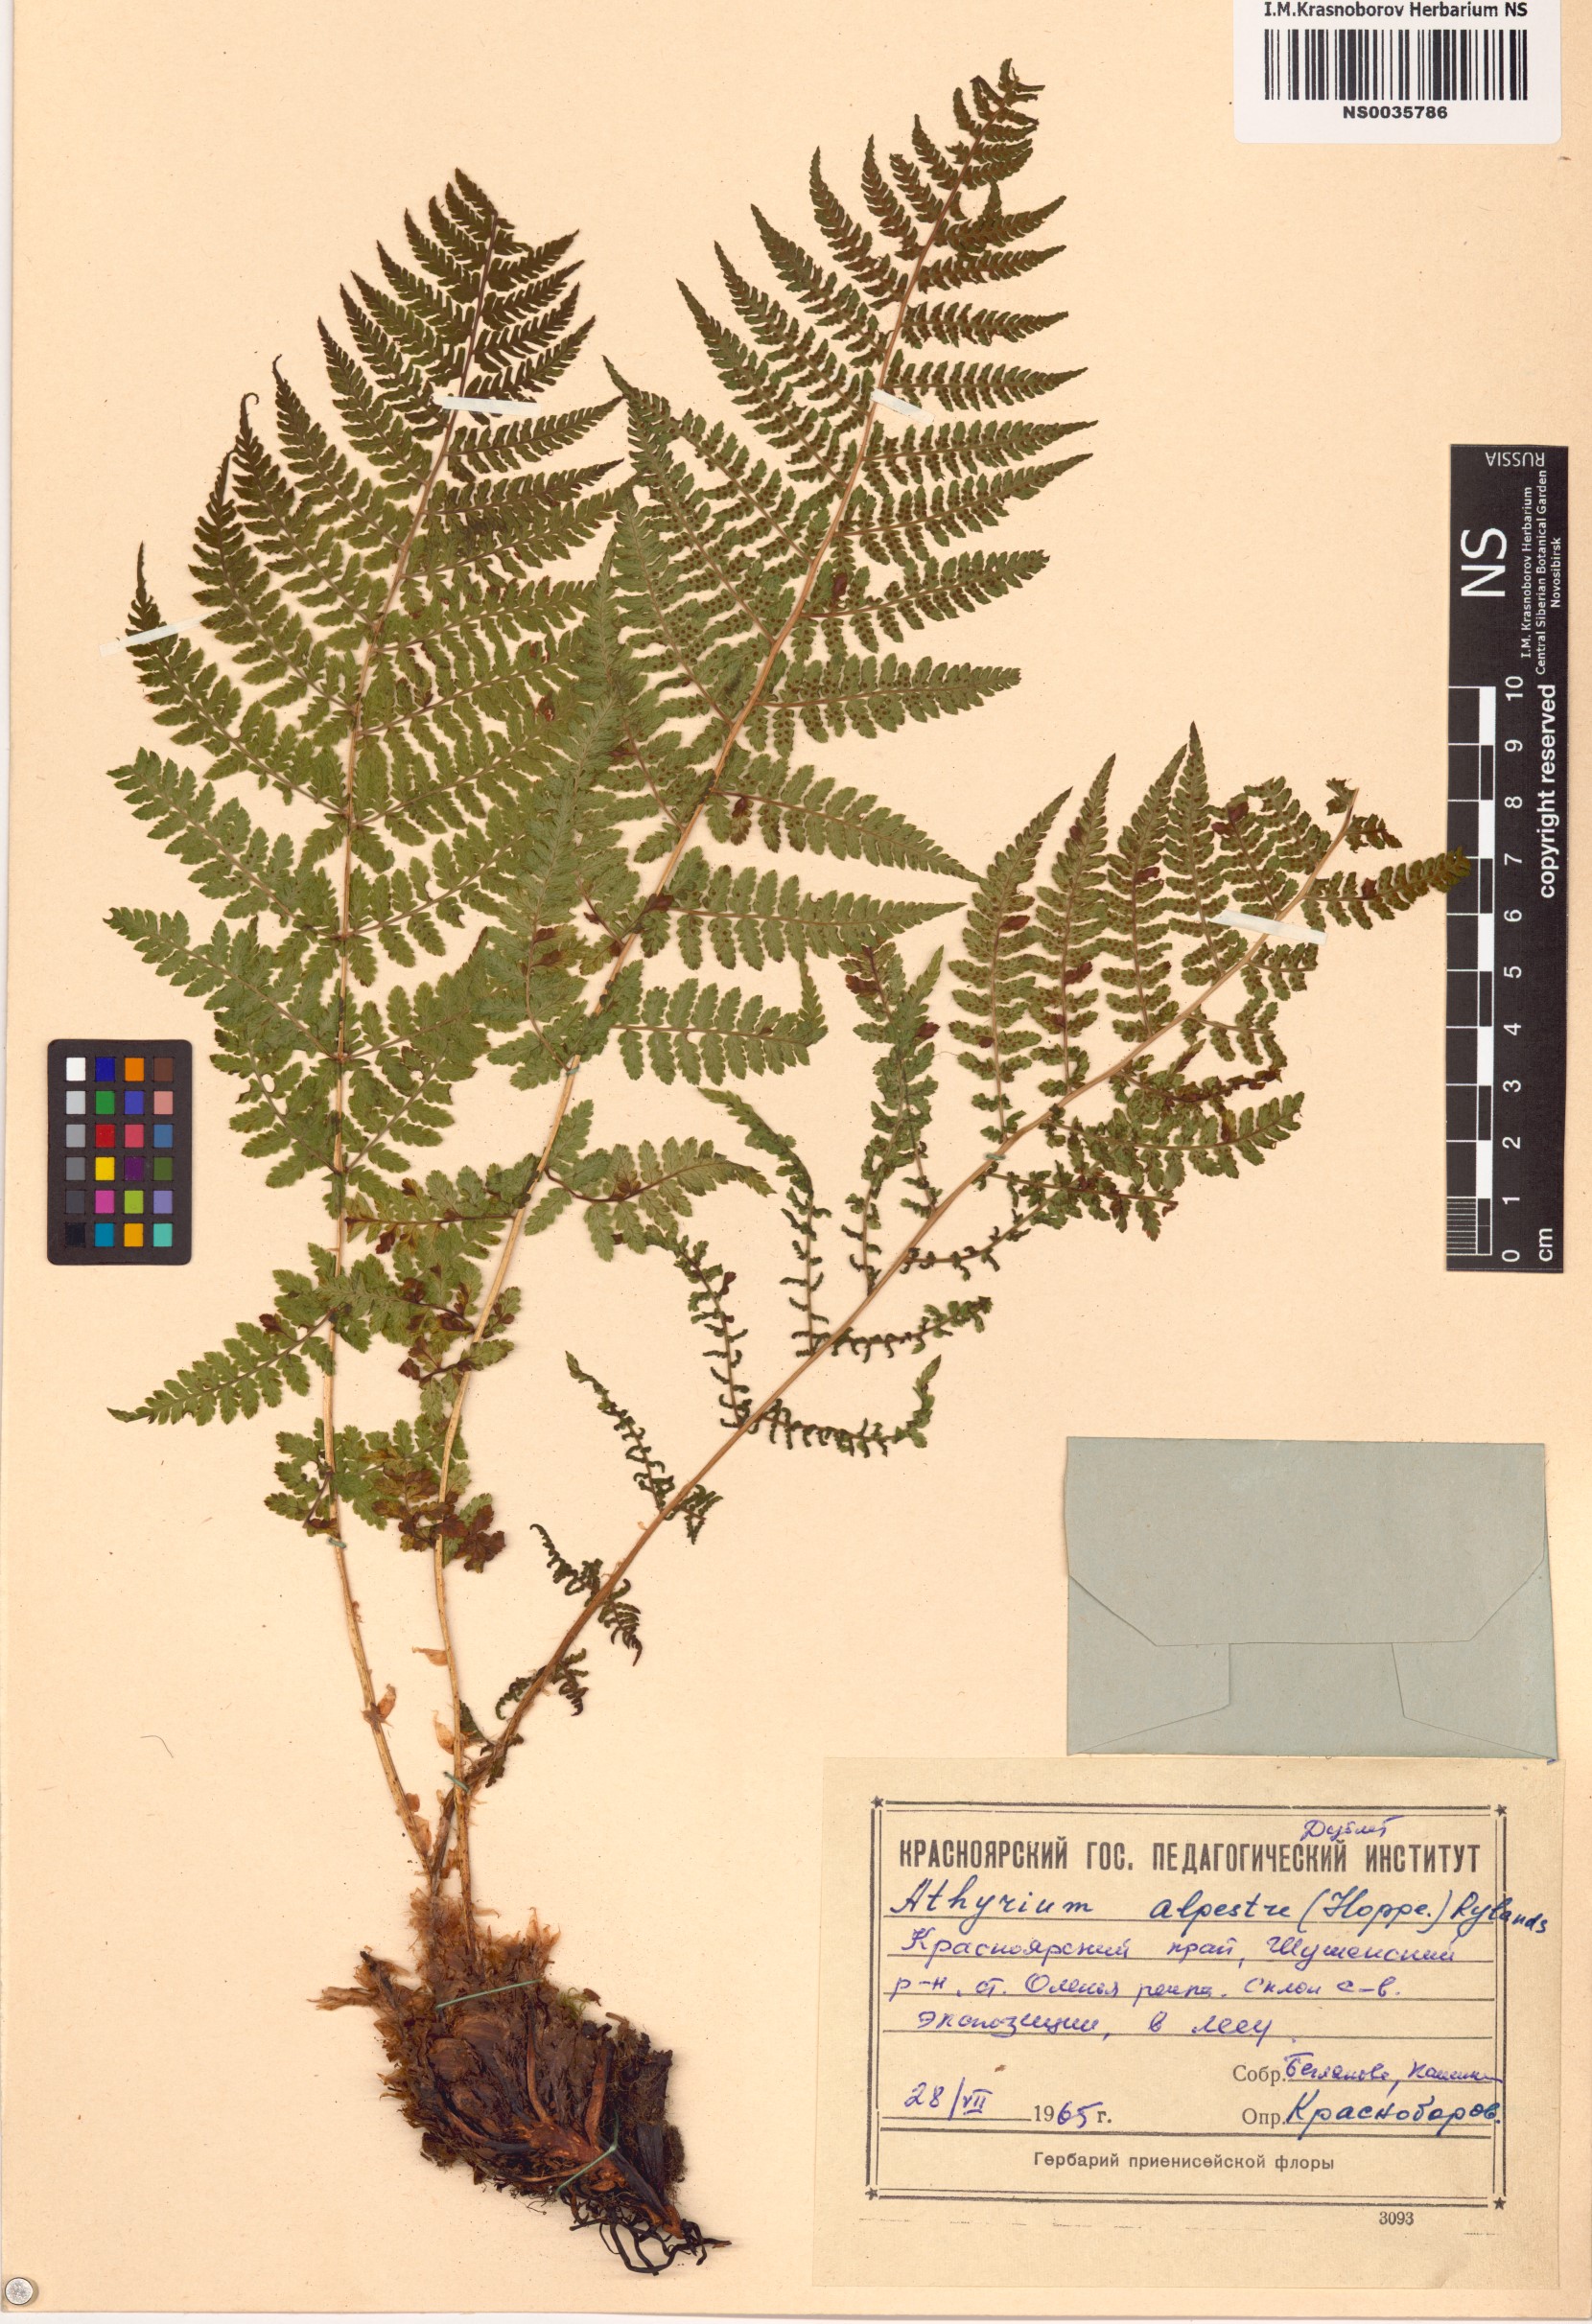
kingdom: Plantae
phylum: Tracheophyta
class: Polypodiopsida
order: Polypodiales
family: Athyriaceae
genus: Pseudathyrium
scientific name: Pseudathyrium alpestre
